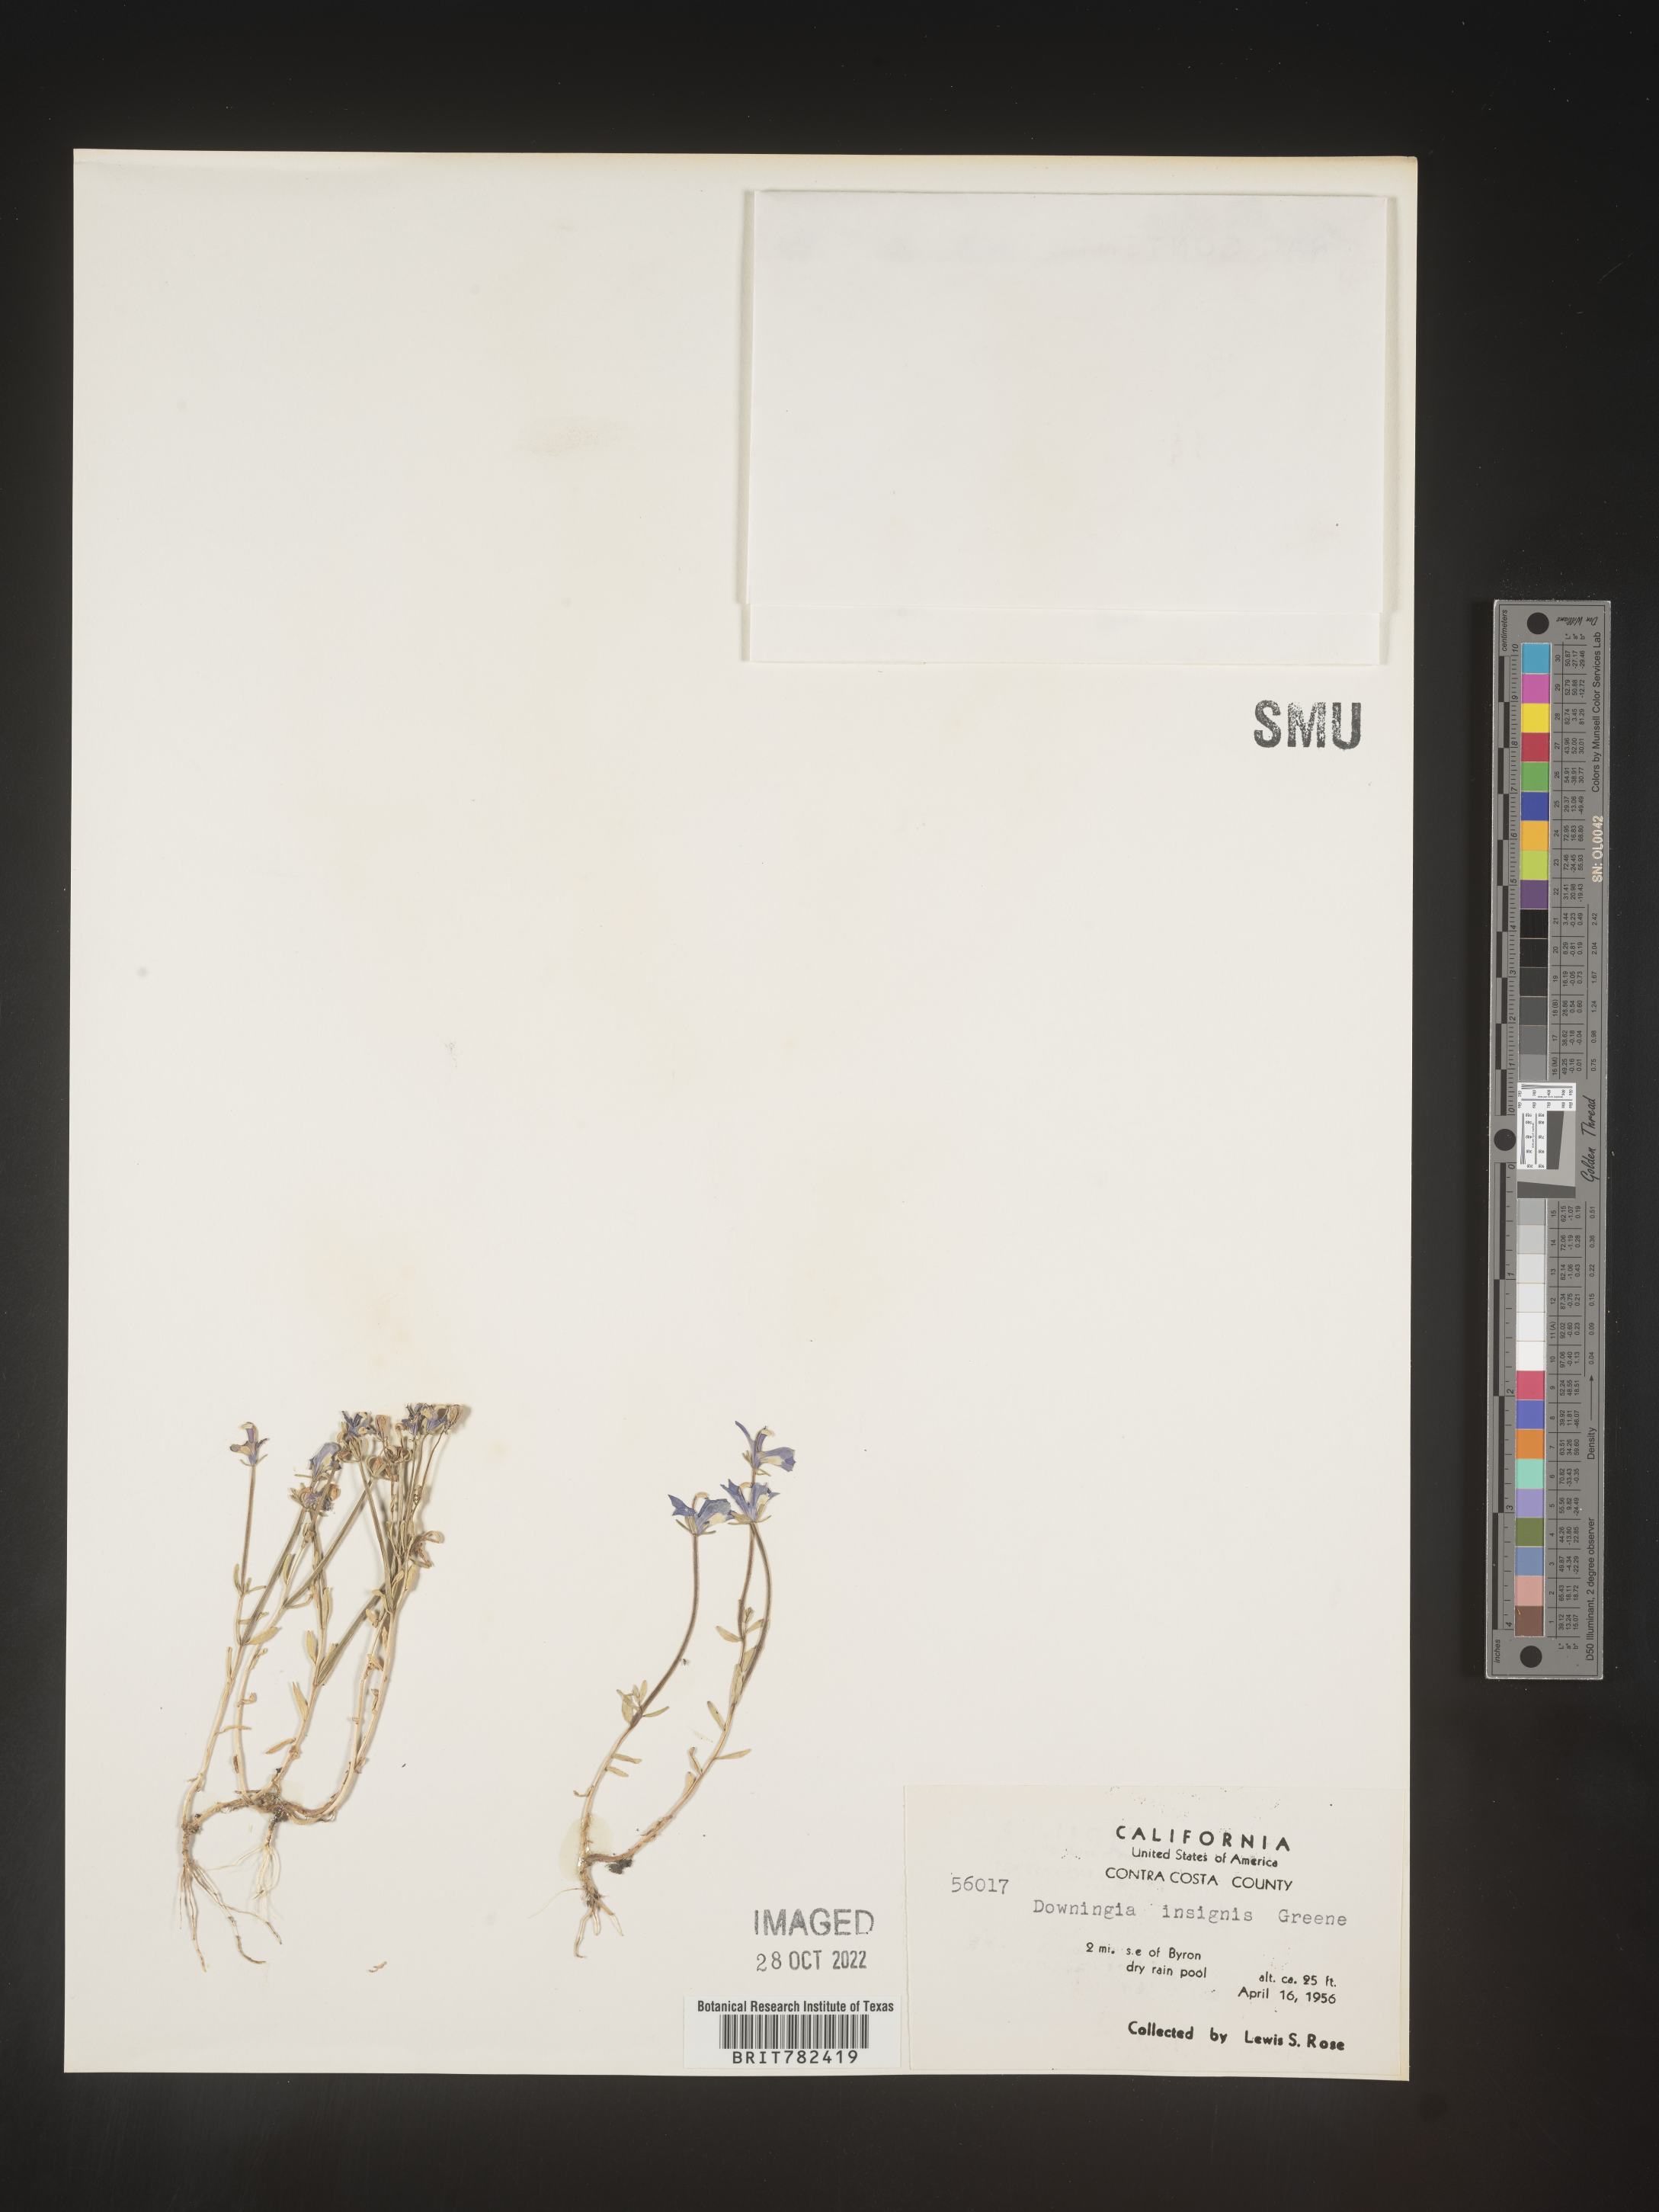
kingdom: Plantae
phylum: Tracheophyta
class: Magnoliopsida
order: Asterales
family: Campanulaceae
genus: Downingia
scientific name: Downingia
